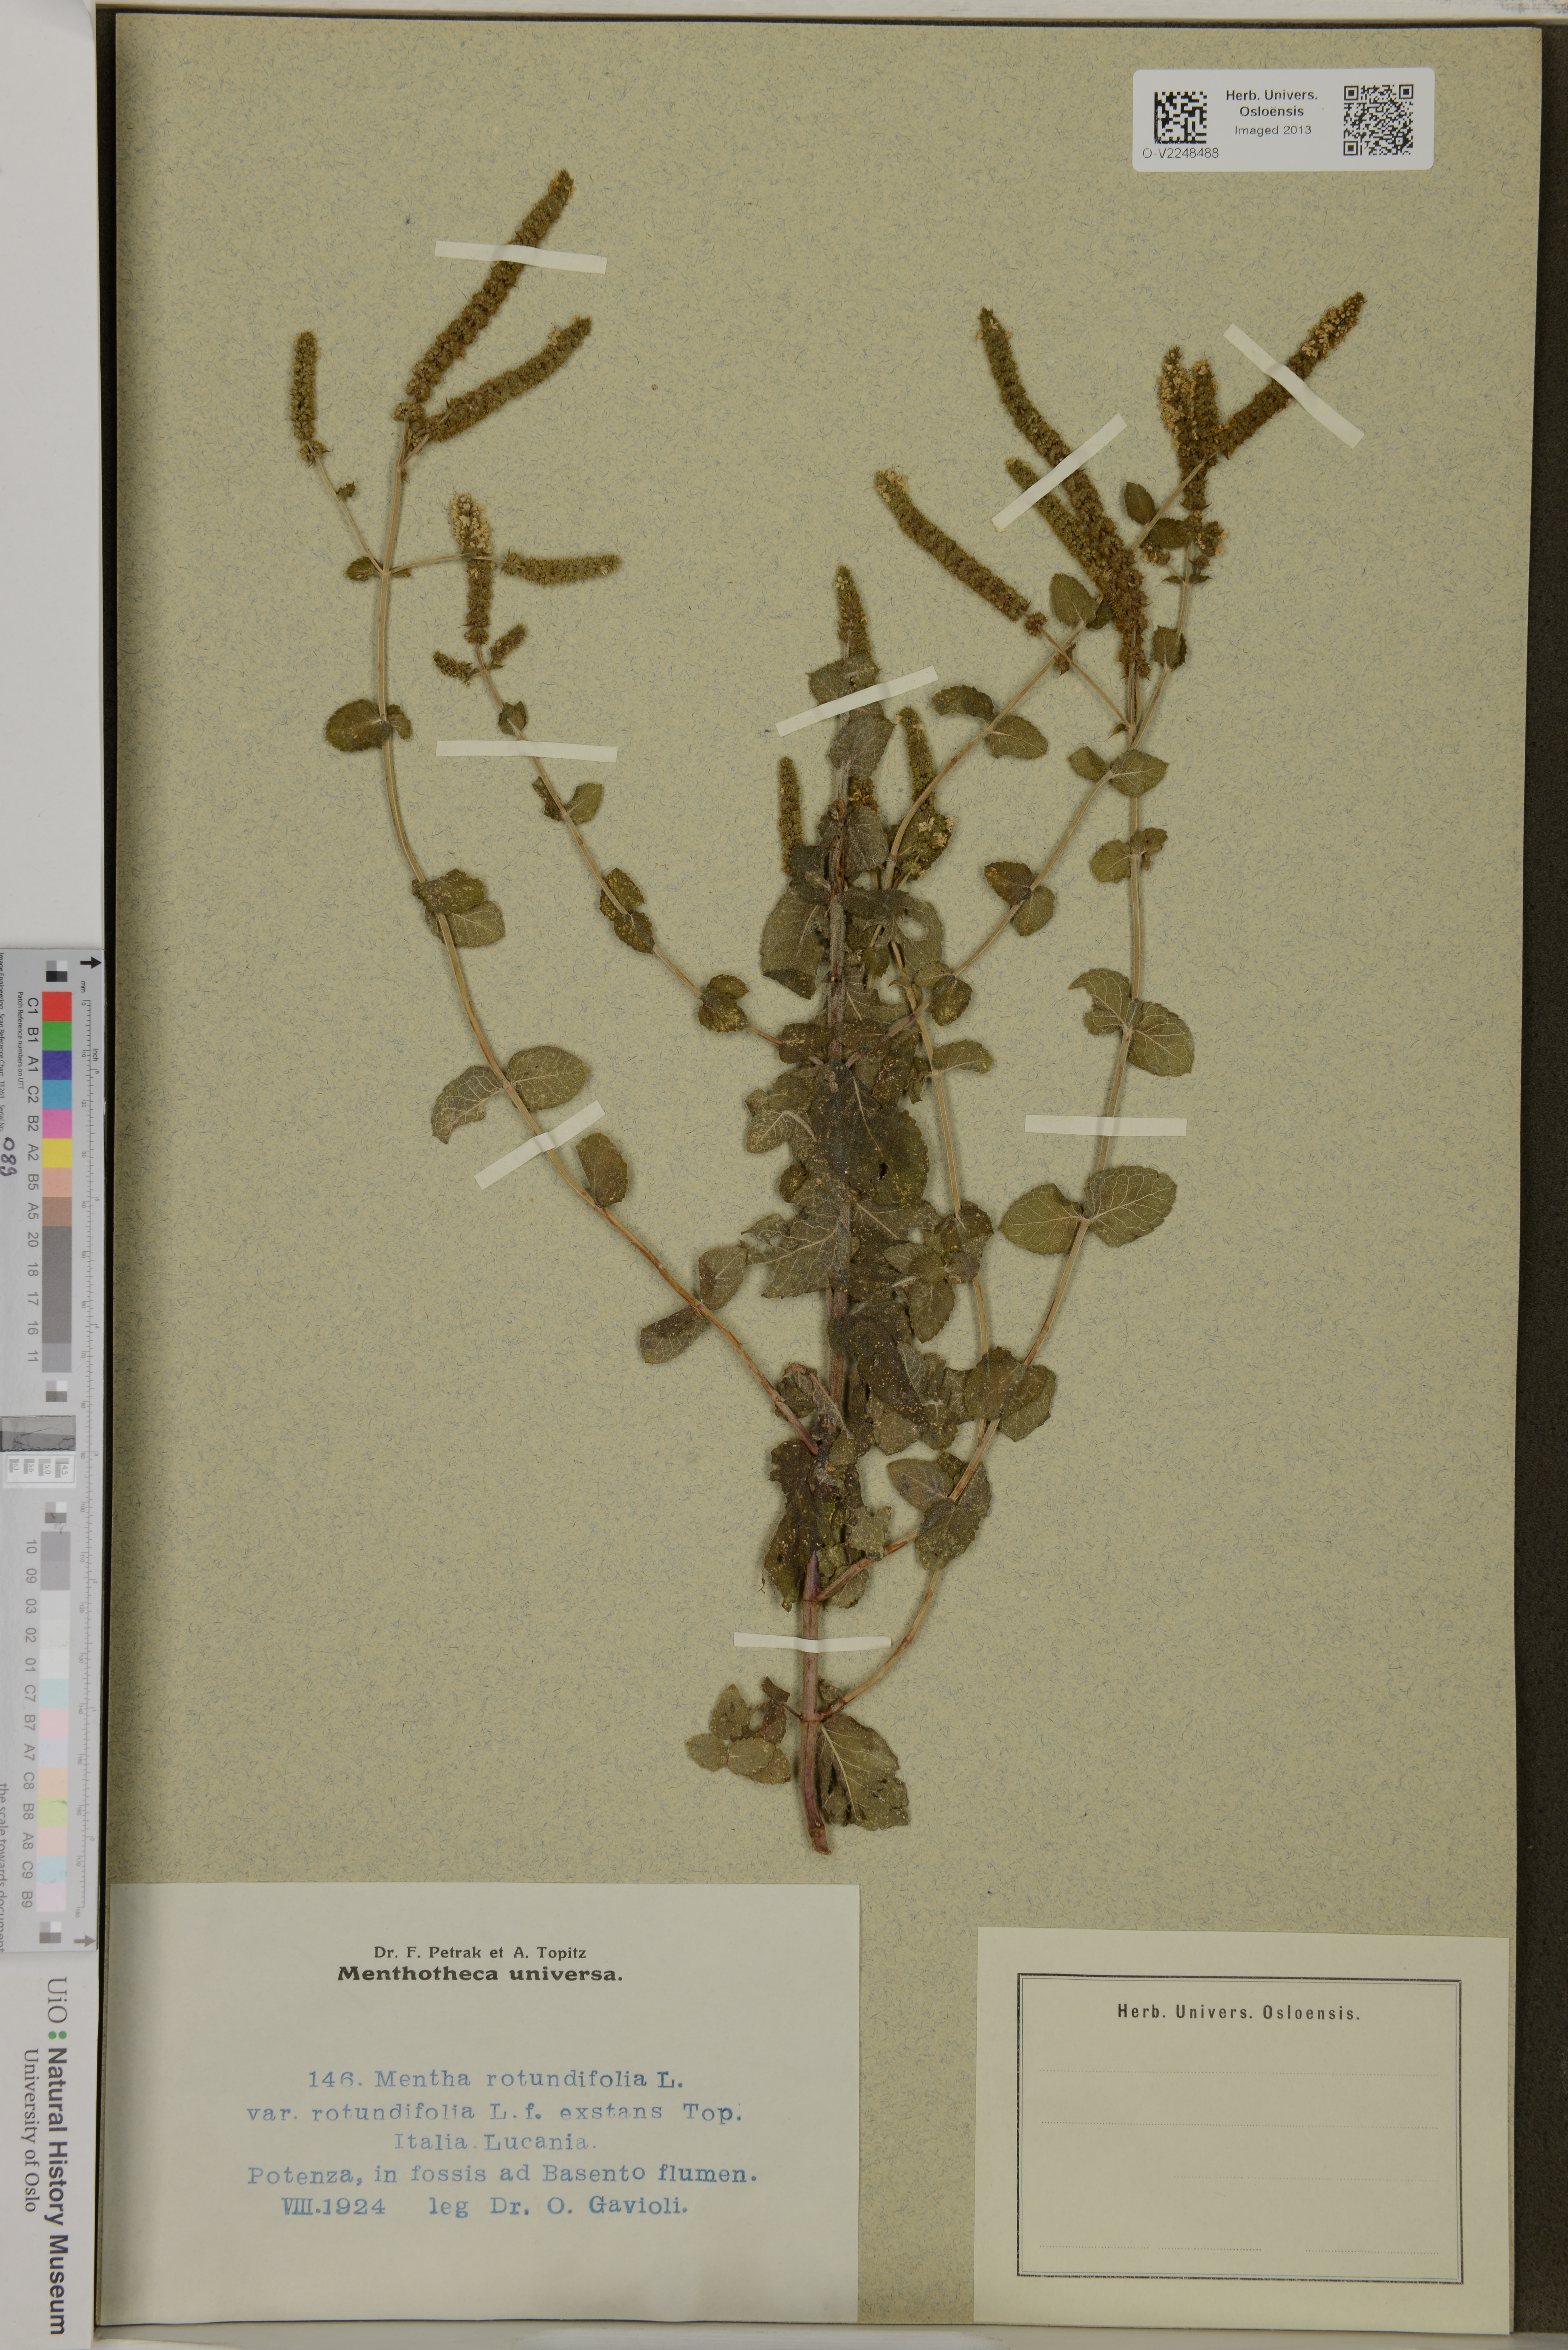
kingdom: Plantae
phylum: Tracheophyta
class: Magnoliopsida
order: Lamiales
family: Lamiaceae
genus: Mentha
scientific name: Mentha rotundifolia
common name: Bigleaf mint
